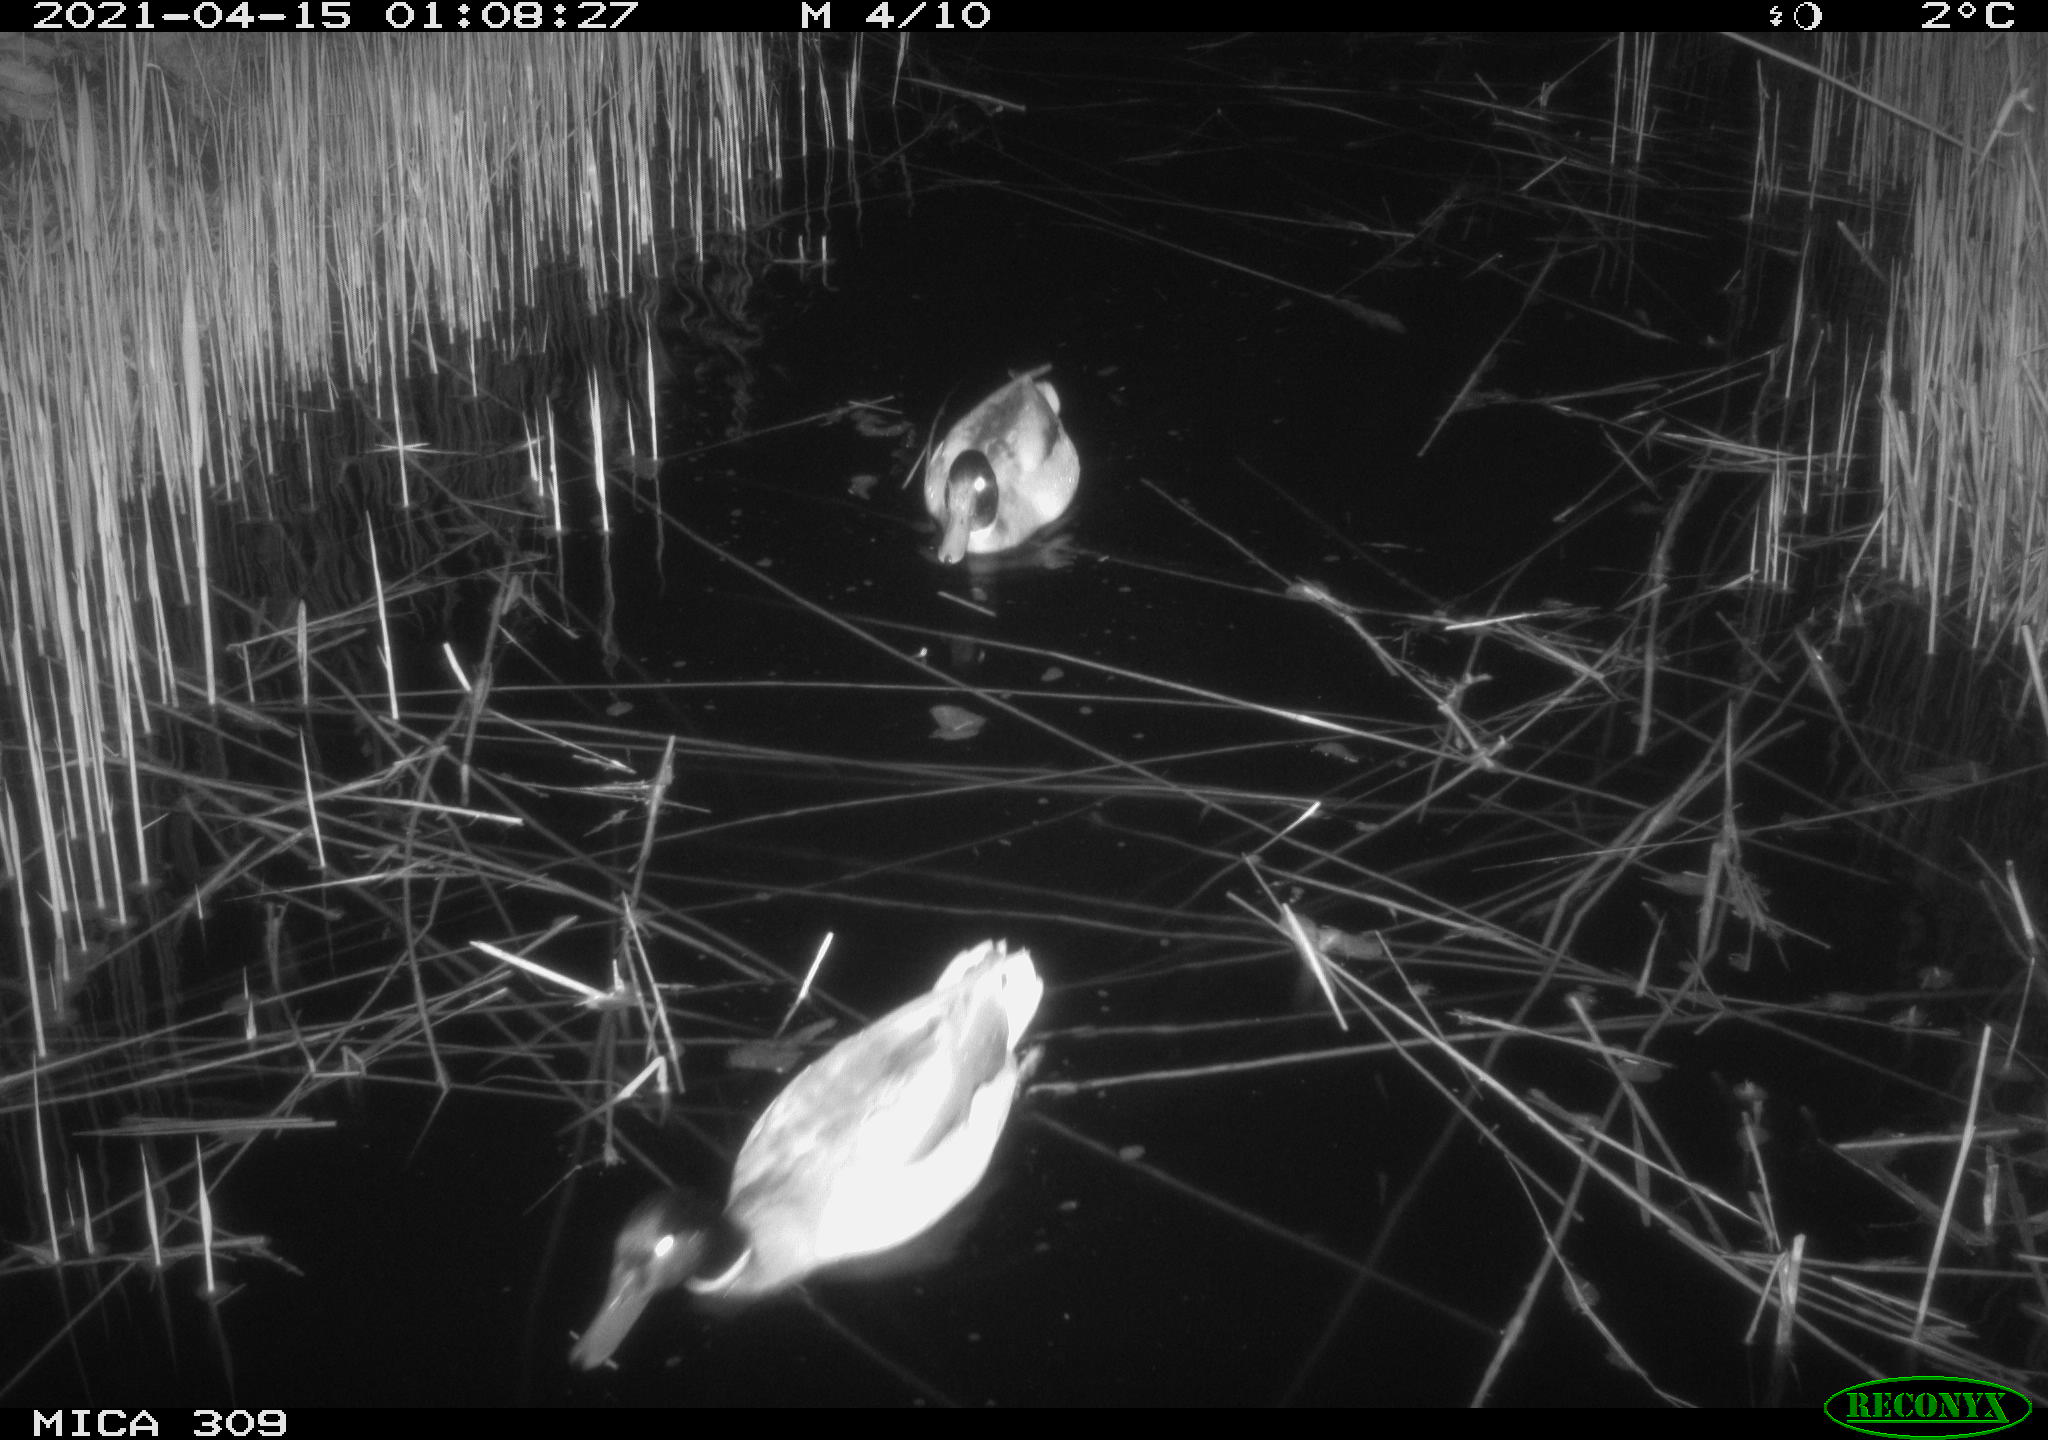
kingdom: Animalia
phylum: Chordata
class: Aves
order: Anseriformes
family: Anatidae
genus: Anas
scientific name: Anas platyrhynchos
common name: Mallard
